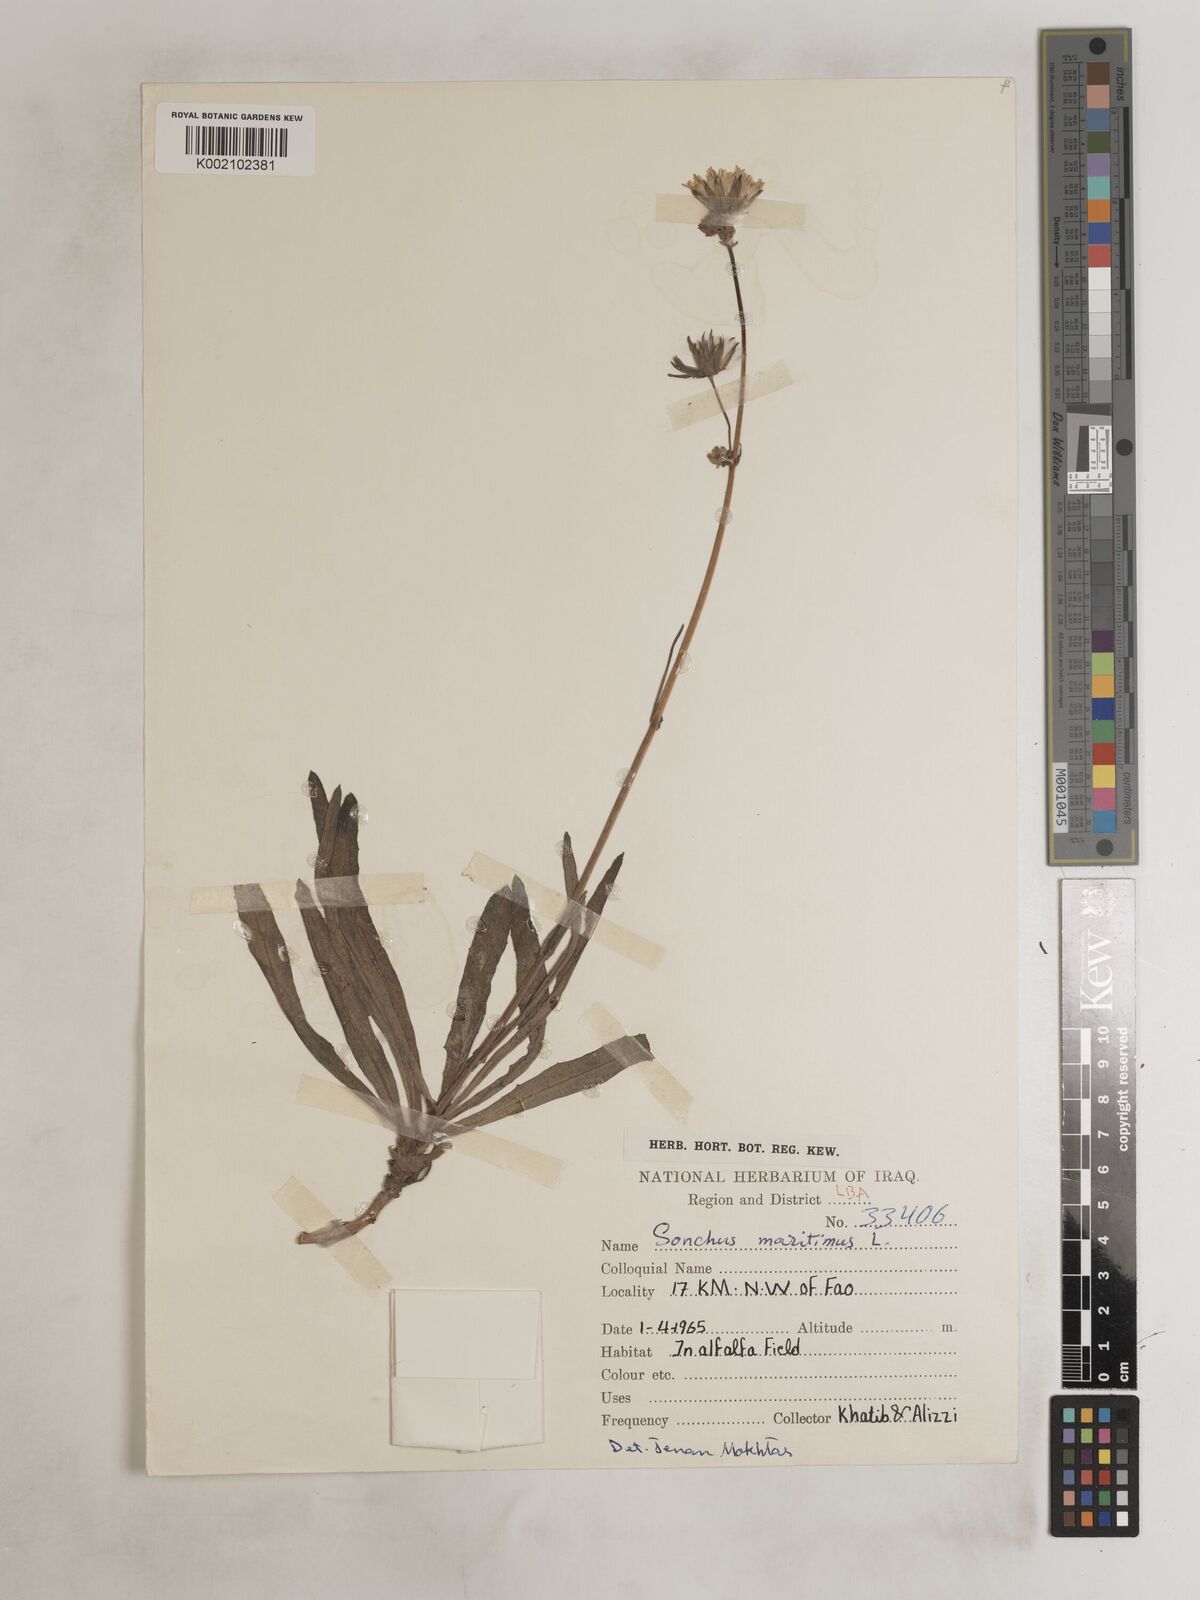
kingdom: Plantae
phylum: Tracheophyta
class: Magnoliopsida
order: Asterales
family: Asteraceae
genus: Sonchus
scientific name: Sonchus maritimus
